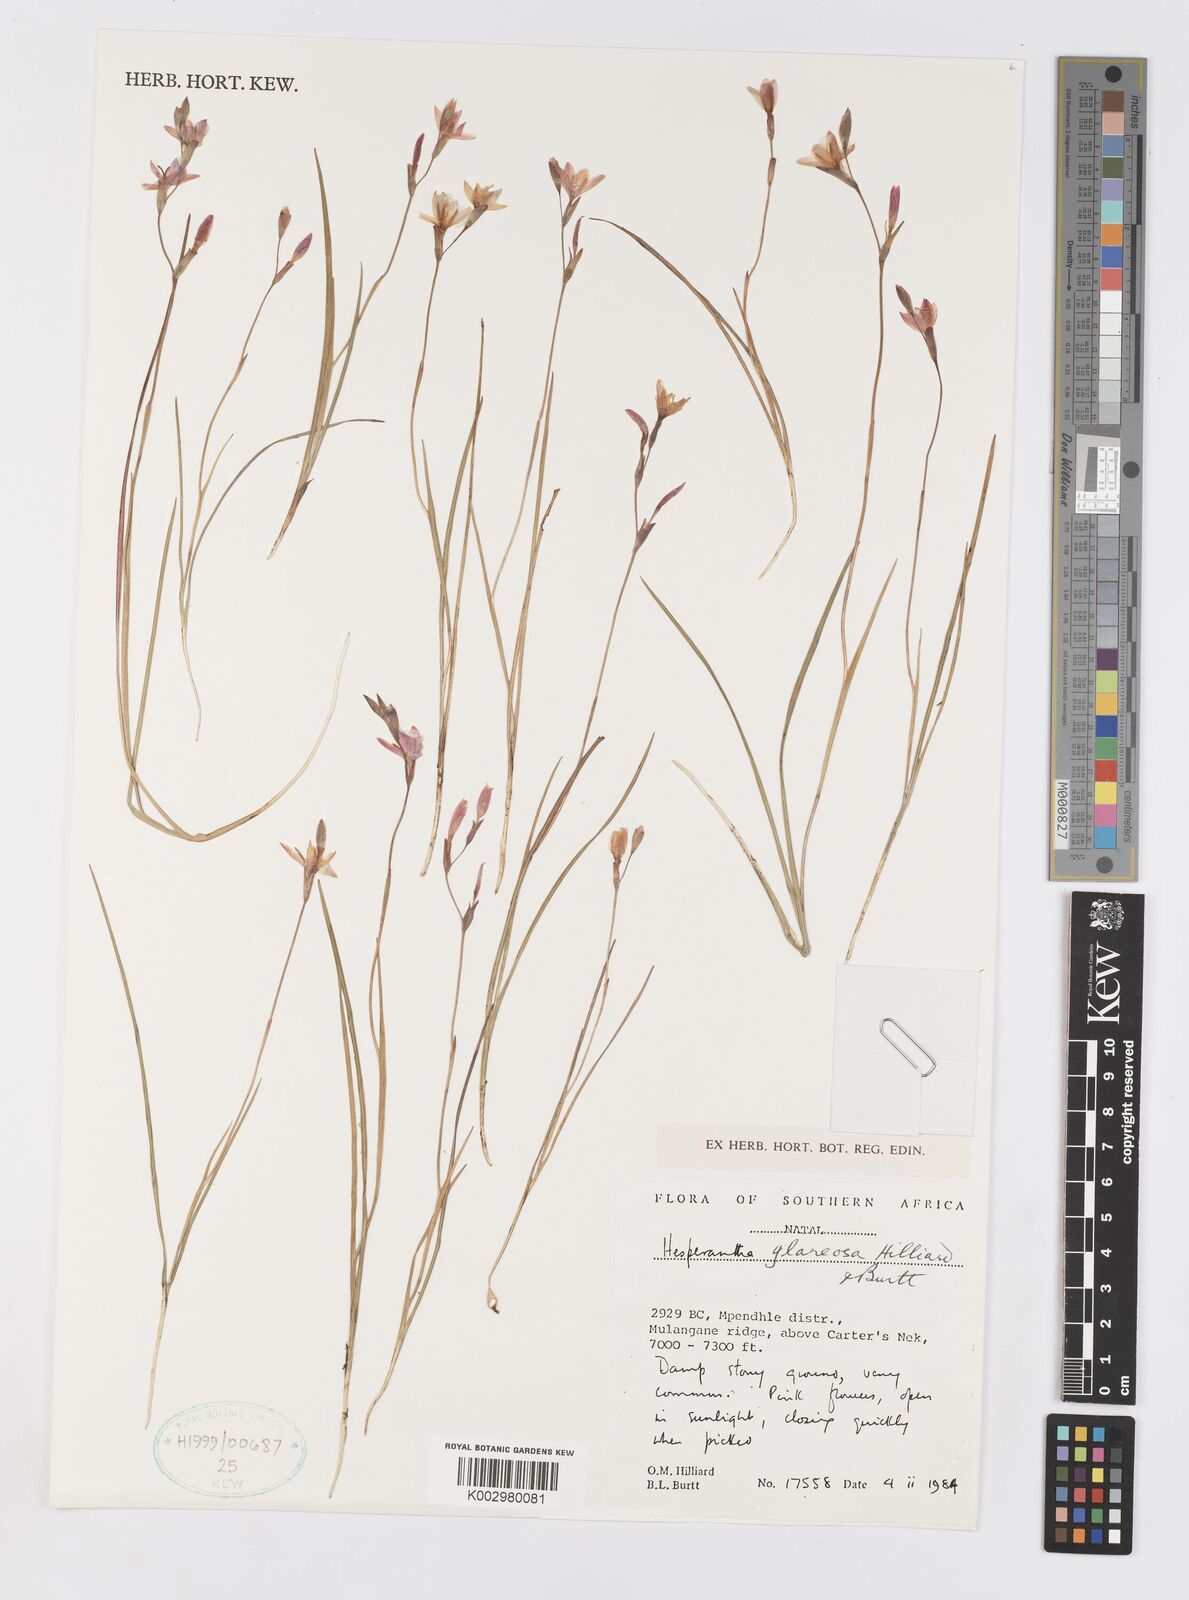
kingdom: Plantae
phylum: Tracheophyta
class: Liliopsida
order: Asparagales
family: Iridaceae
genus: Hesperantha
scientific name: Hesperantha glareosa
